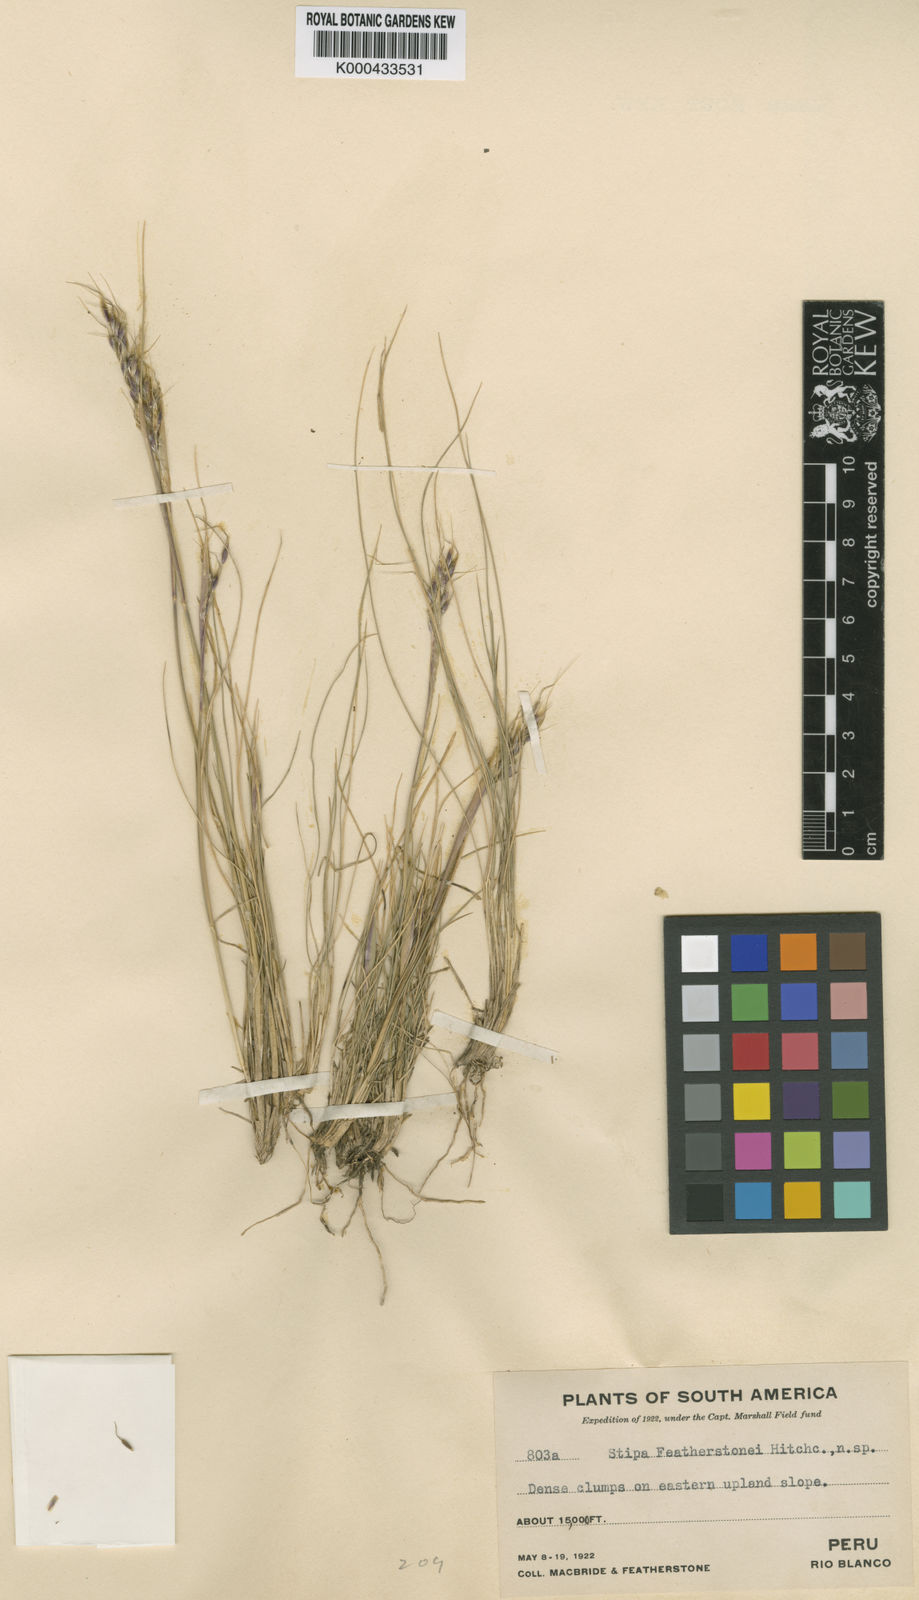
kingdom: Plantae
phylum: Tracheophyta
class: Liliopsida
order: Poales
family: Poaceae
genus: Piptochaetium
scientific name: Piptochaetium featherstonei
